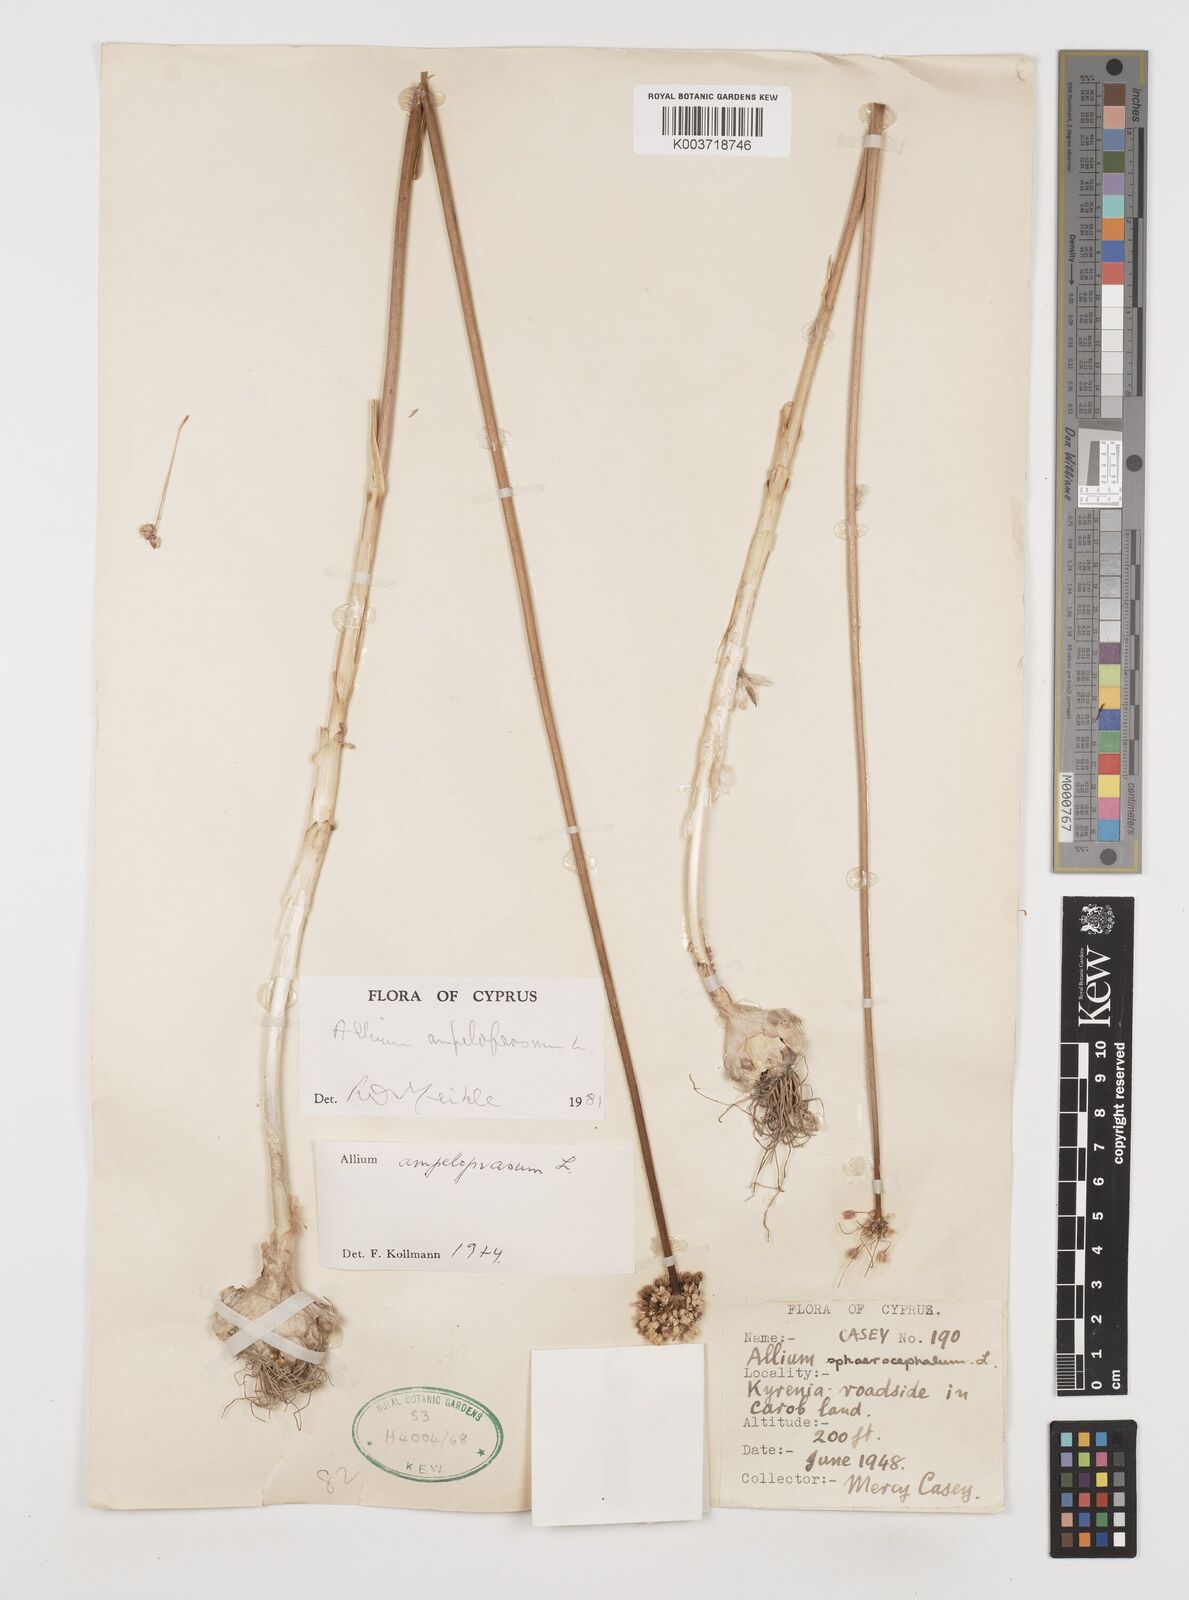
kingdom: Plantae
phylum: Tracheophyta
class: Liliopsida
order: Asparagales
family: Amaryllidaceae
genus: Allium
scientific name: Allium rotundum
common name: Sand leek
